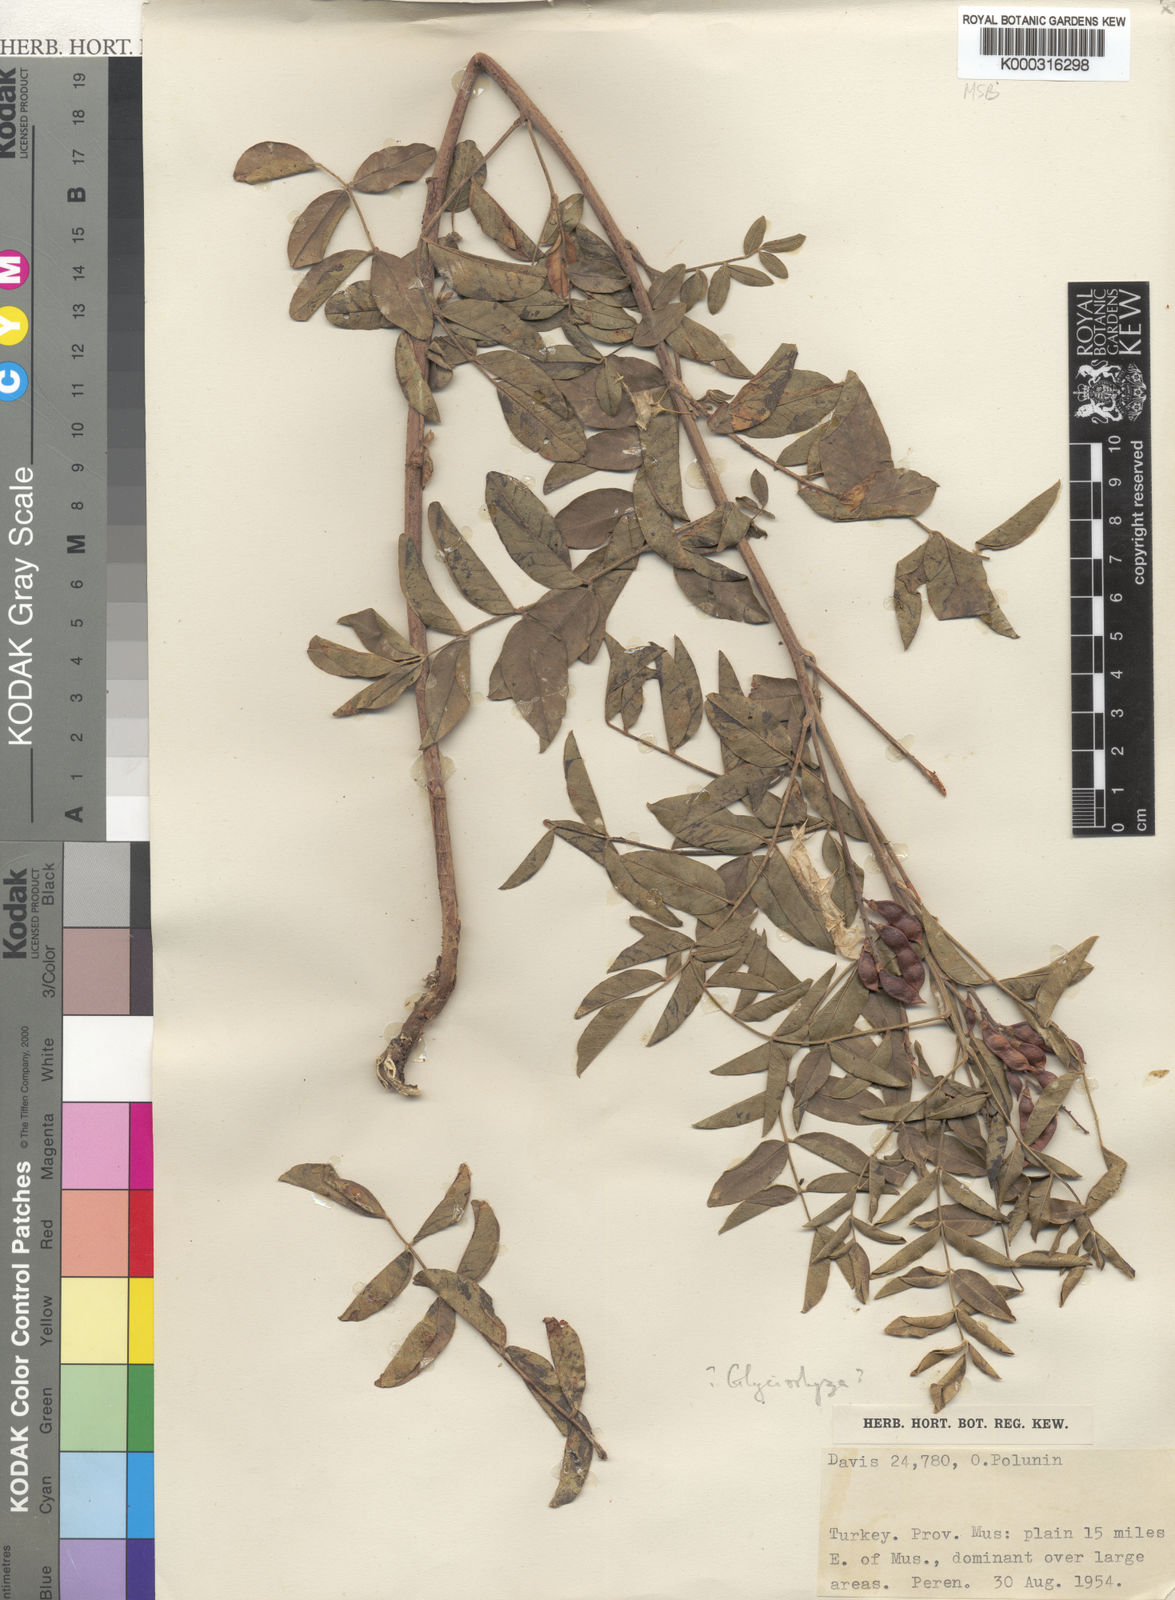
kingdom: Plantae
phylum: Tracheophyta
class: Magnoliopsida
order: Fabales
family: Fabaceae
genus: Glycyrrhiza
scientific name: Glycyrrhiza glabra
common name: Liquorice
